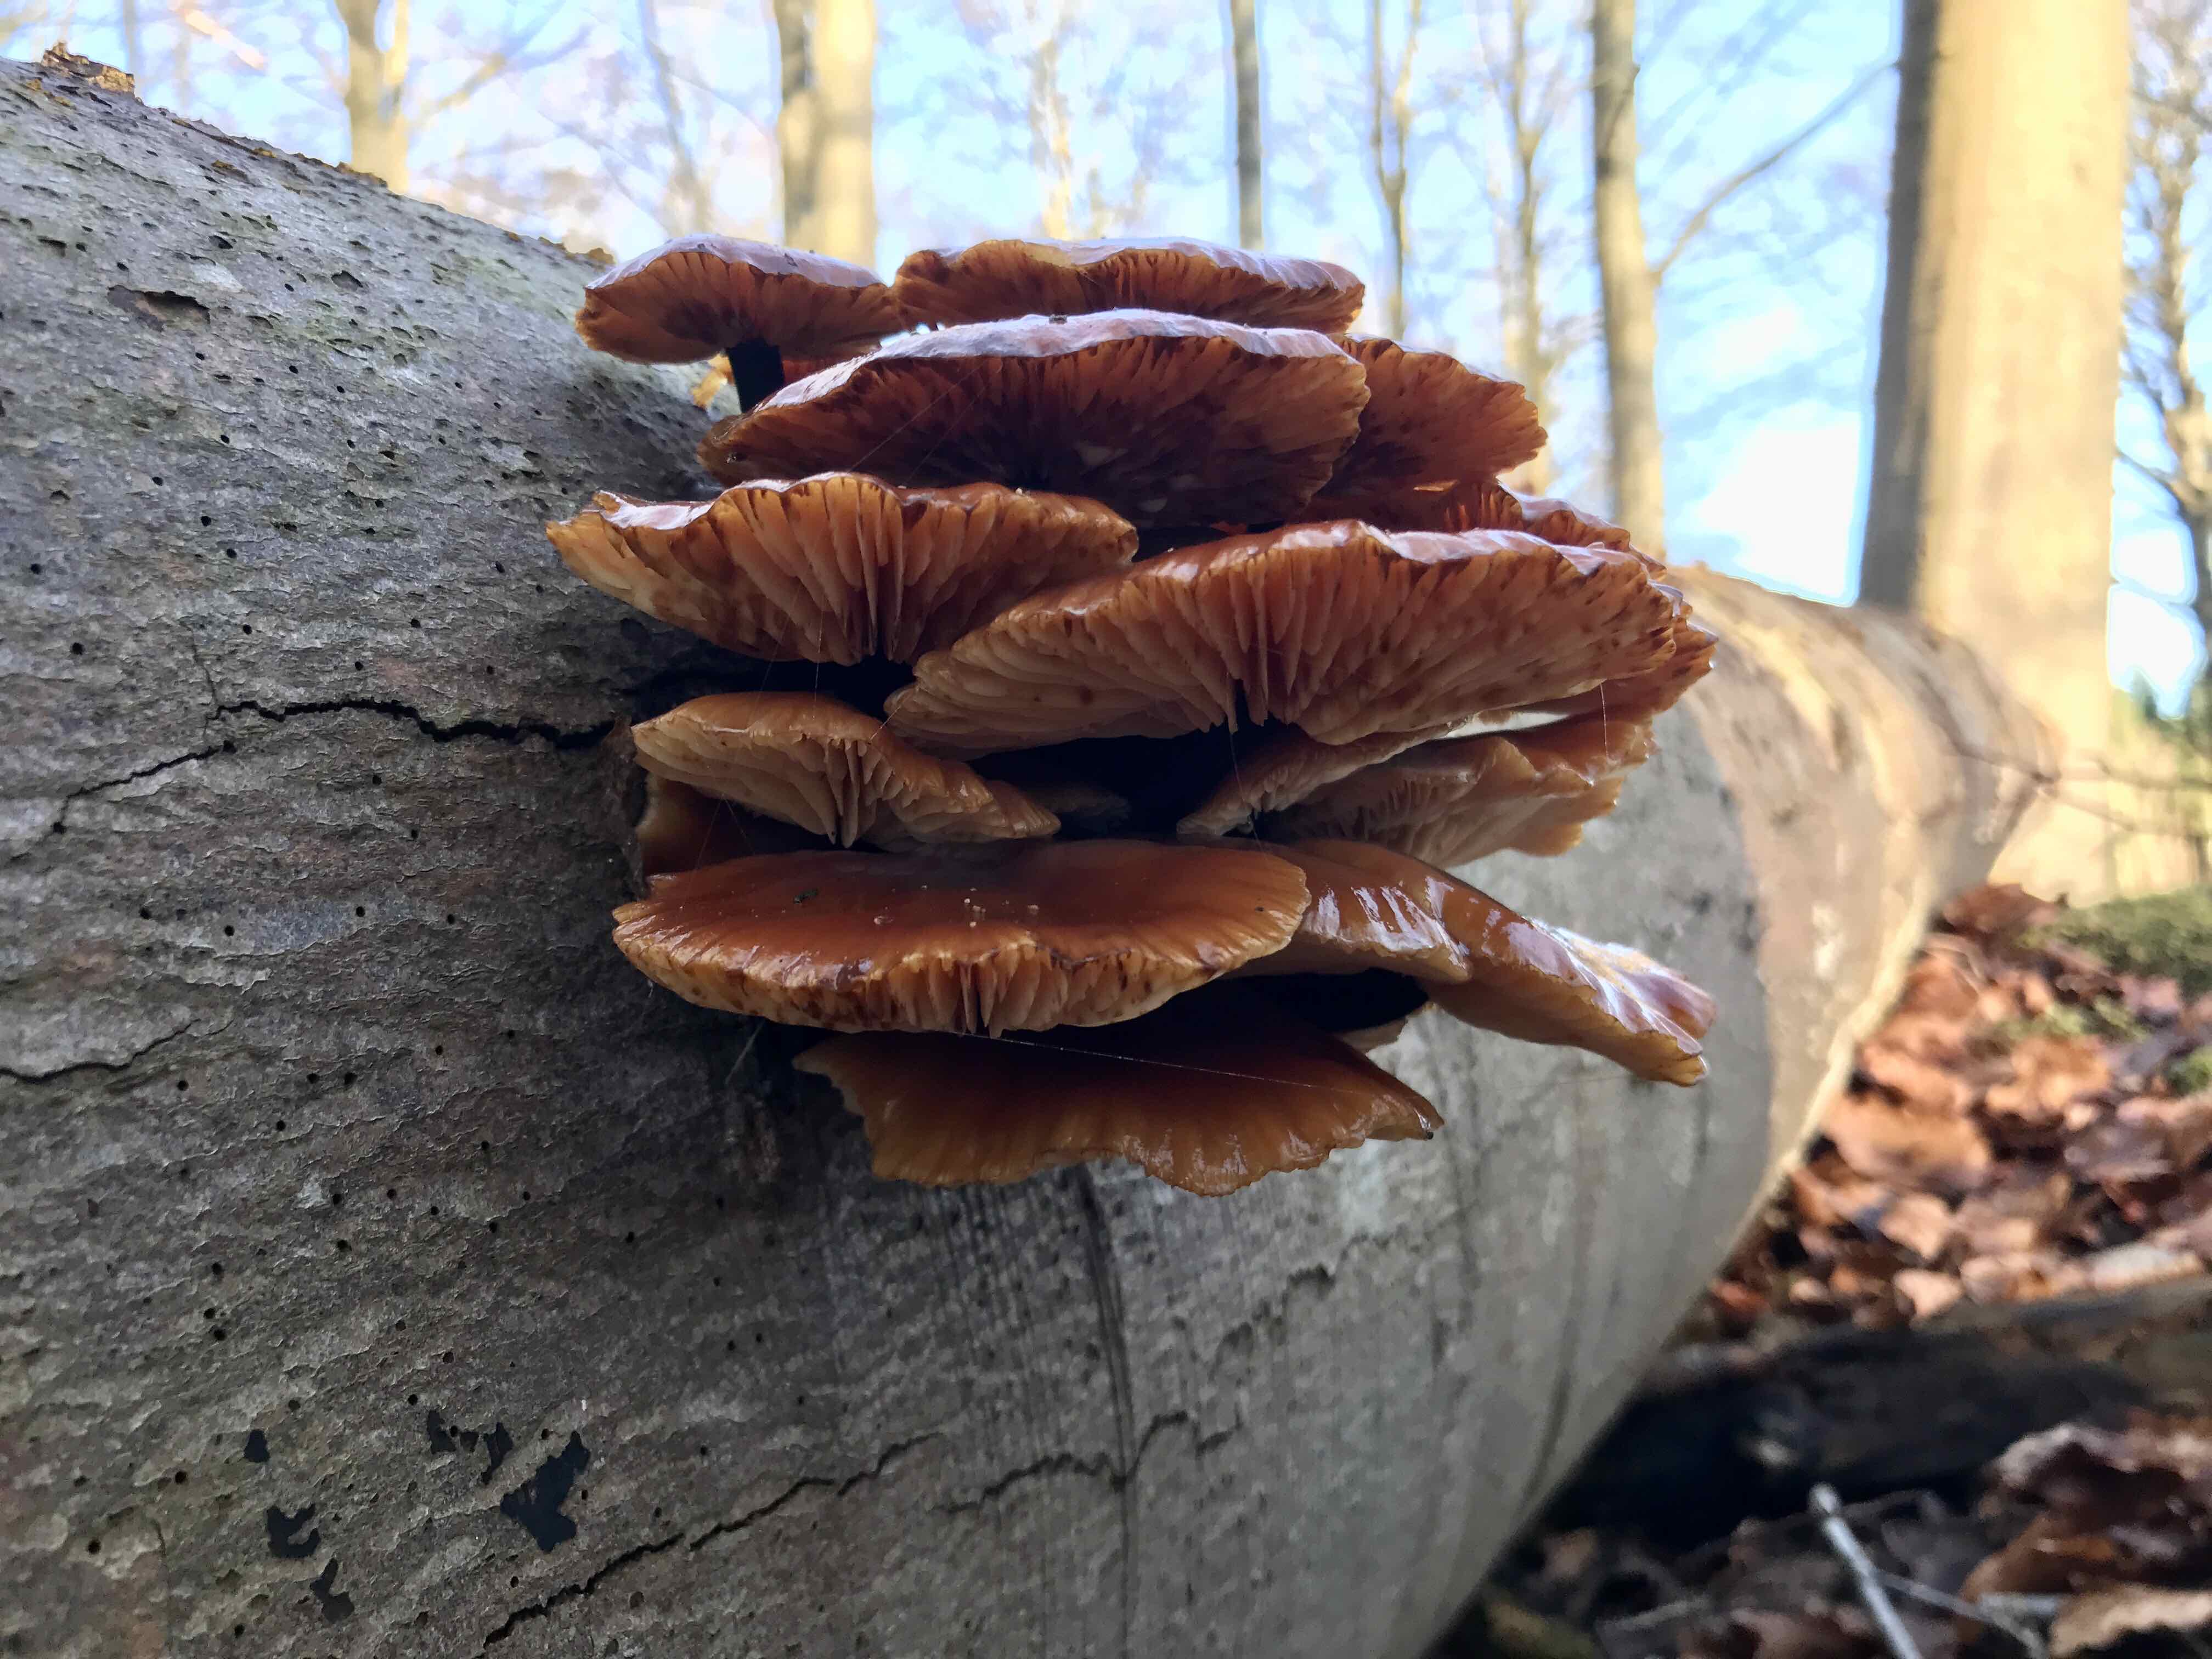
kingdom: Fungi
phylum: Basidiomycota
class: Agaricomycetes
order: Agaricales
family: Physalacriaceae
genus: Flammulina
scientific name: Flammulina velutipes
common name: gul fløjlsfod
